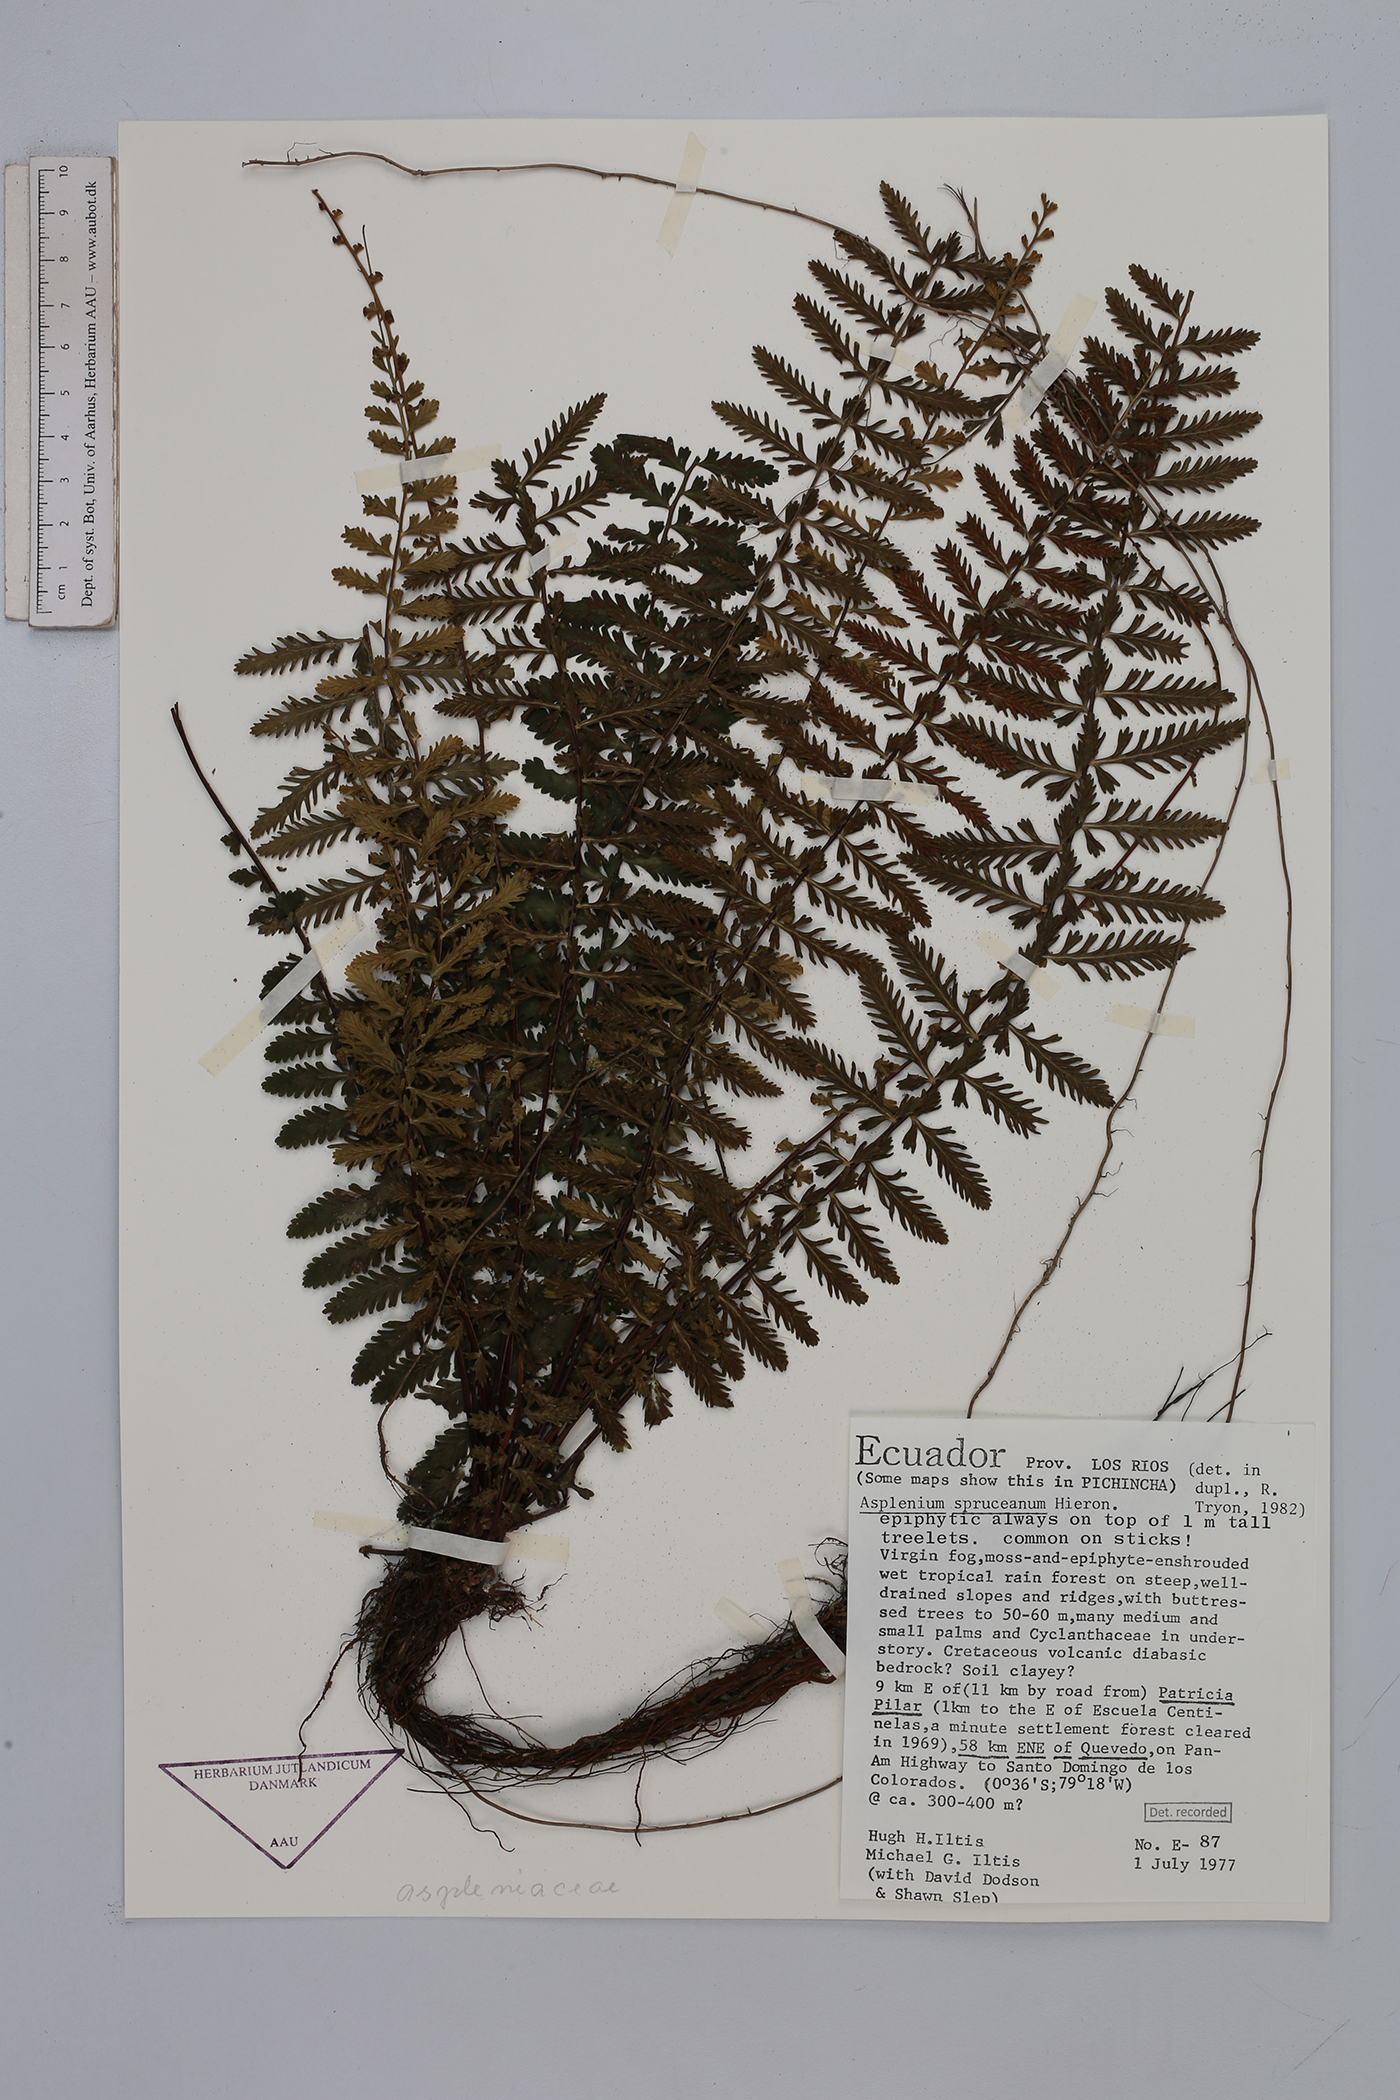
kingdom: Plantae
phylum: Tracheophyta
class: Polypodiopsida
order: Polypodiales
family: Aspleniaceae
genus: Asplenium
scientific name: Asplenium hallii
